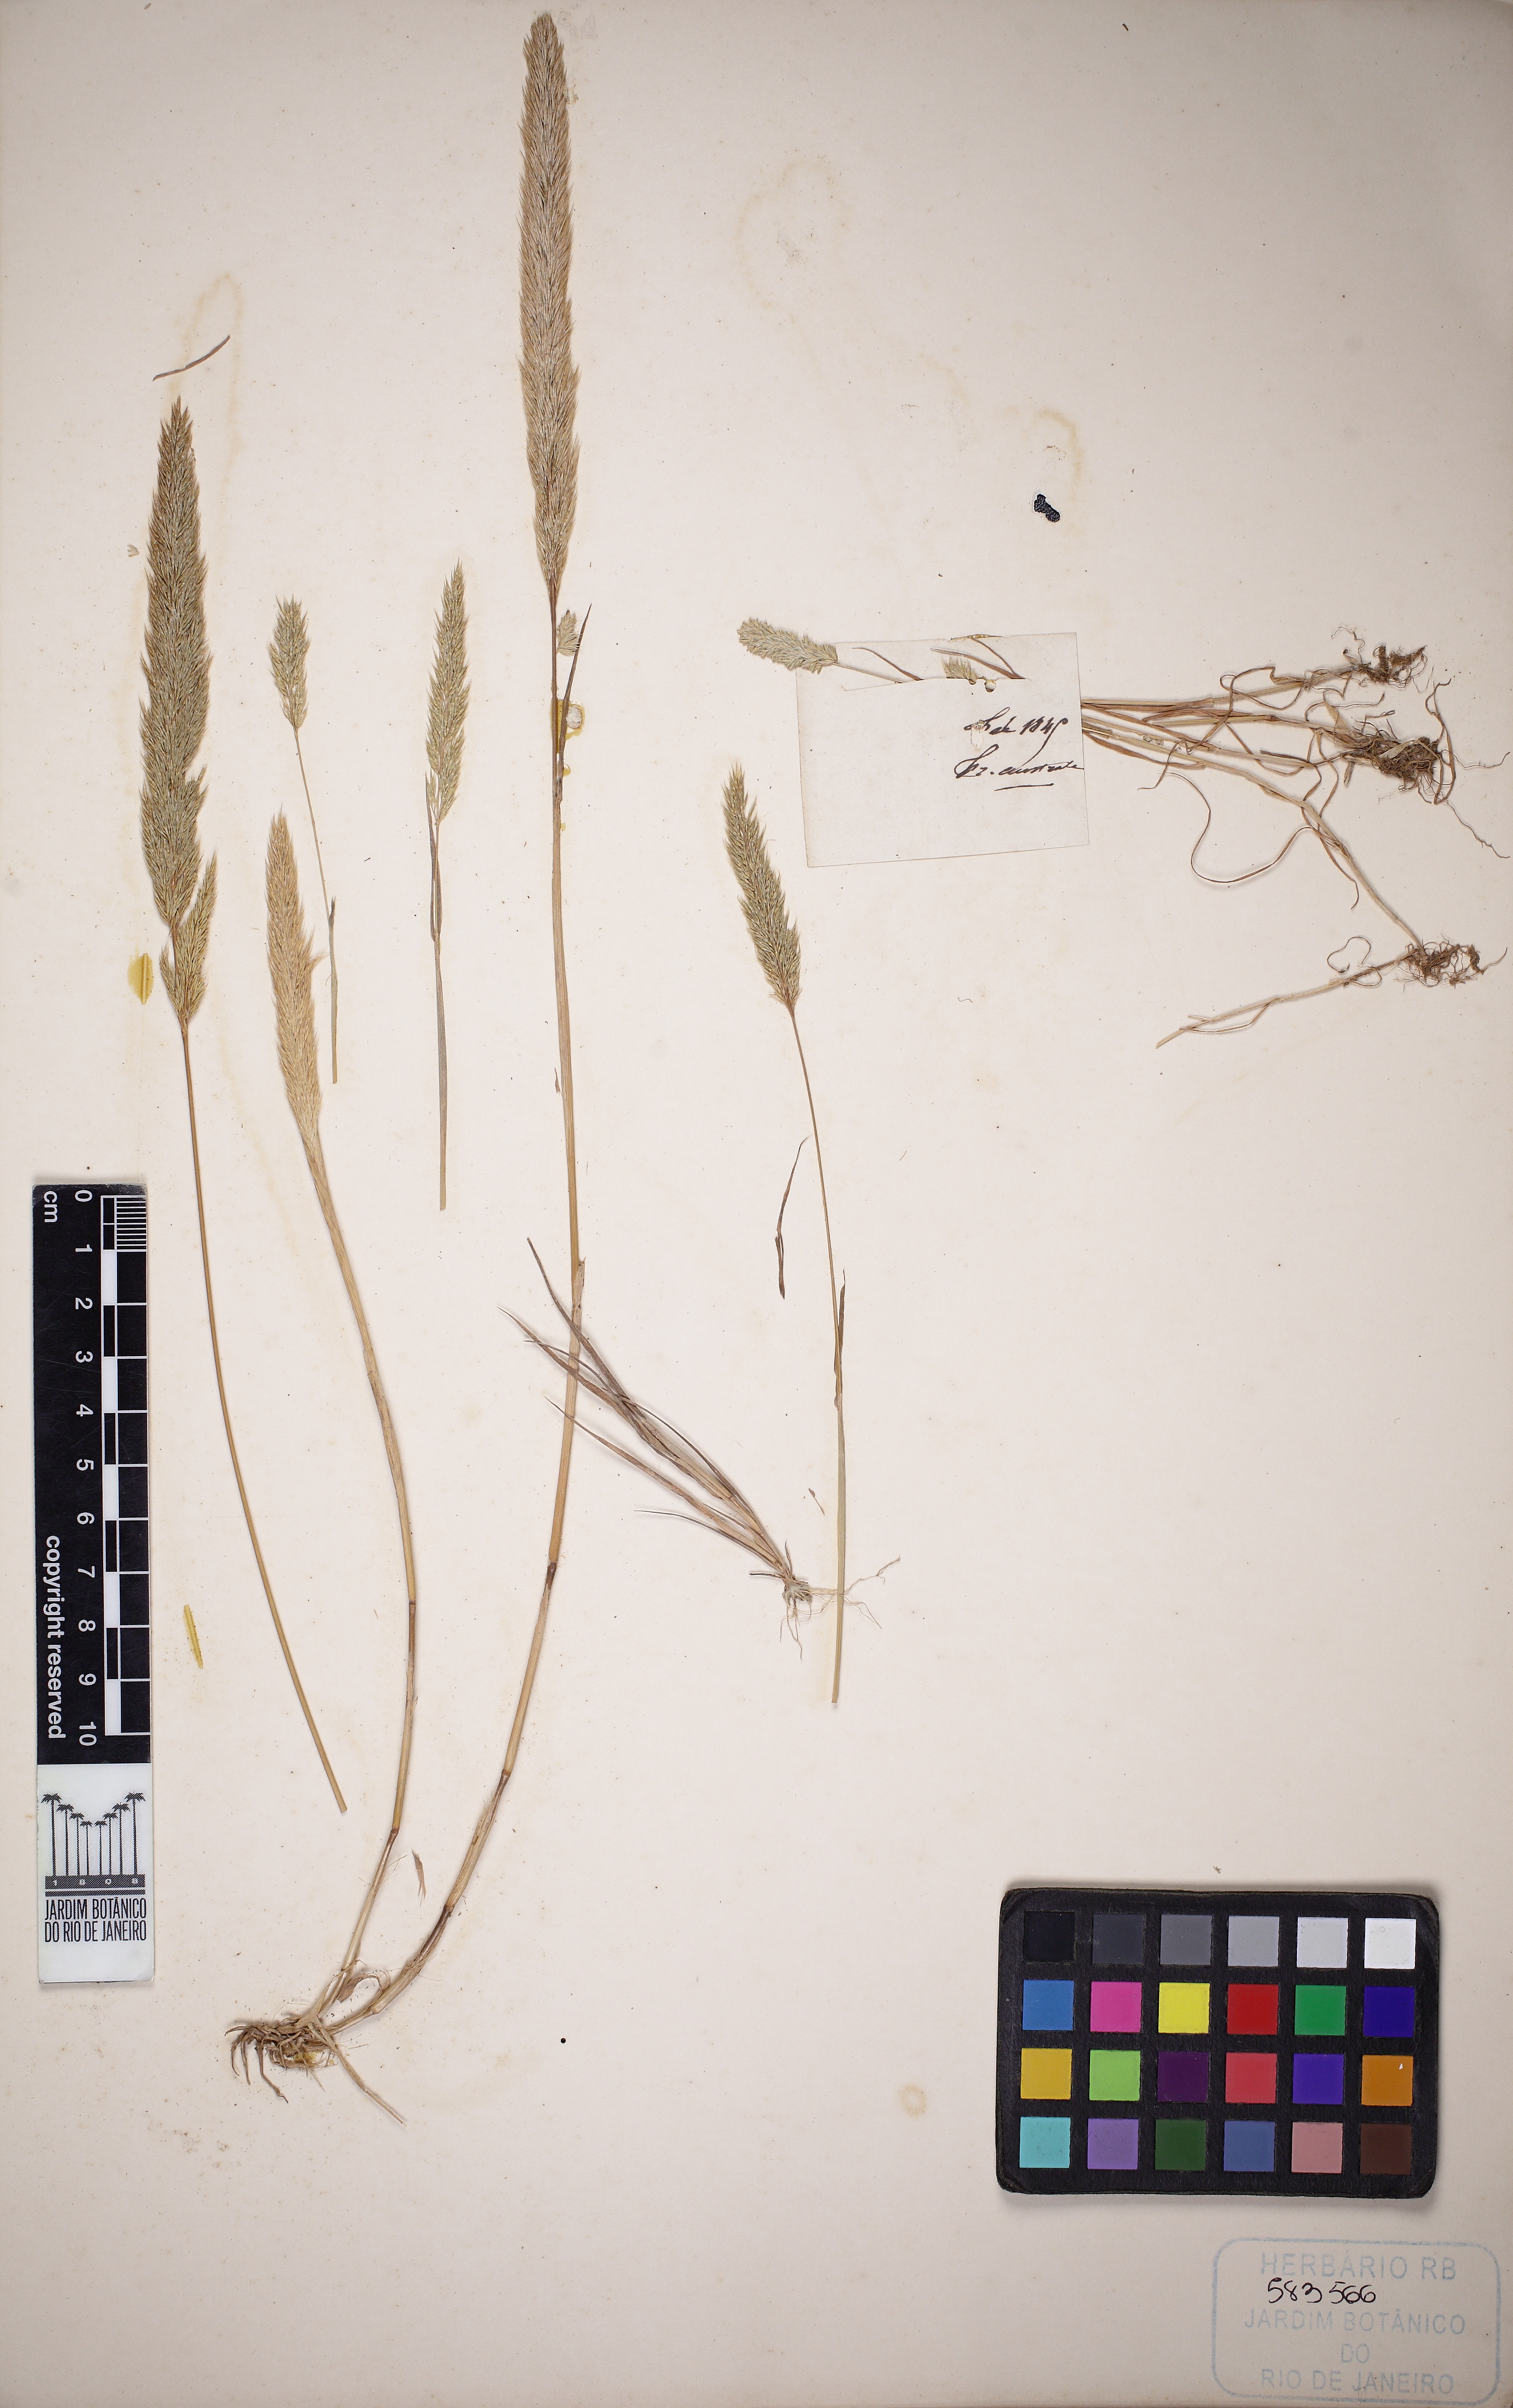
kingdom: Plantae
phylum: Tracheophyta
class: Liliopsida
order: Poales
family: Poaceae
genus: Triplachne
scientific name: Triplachne nitens
